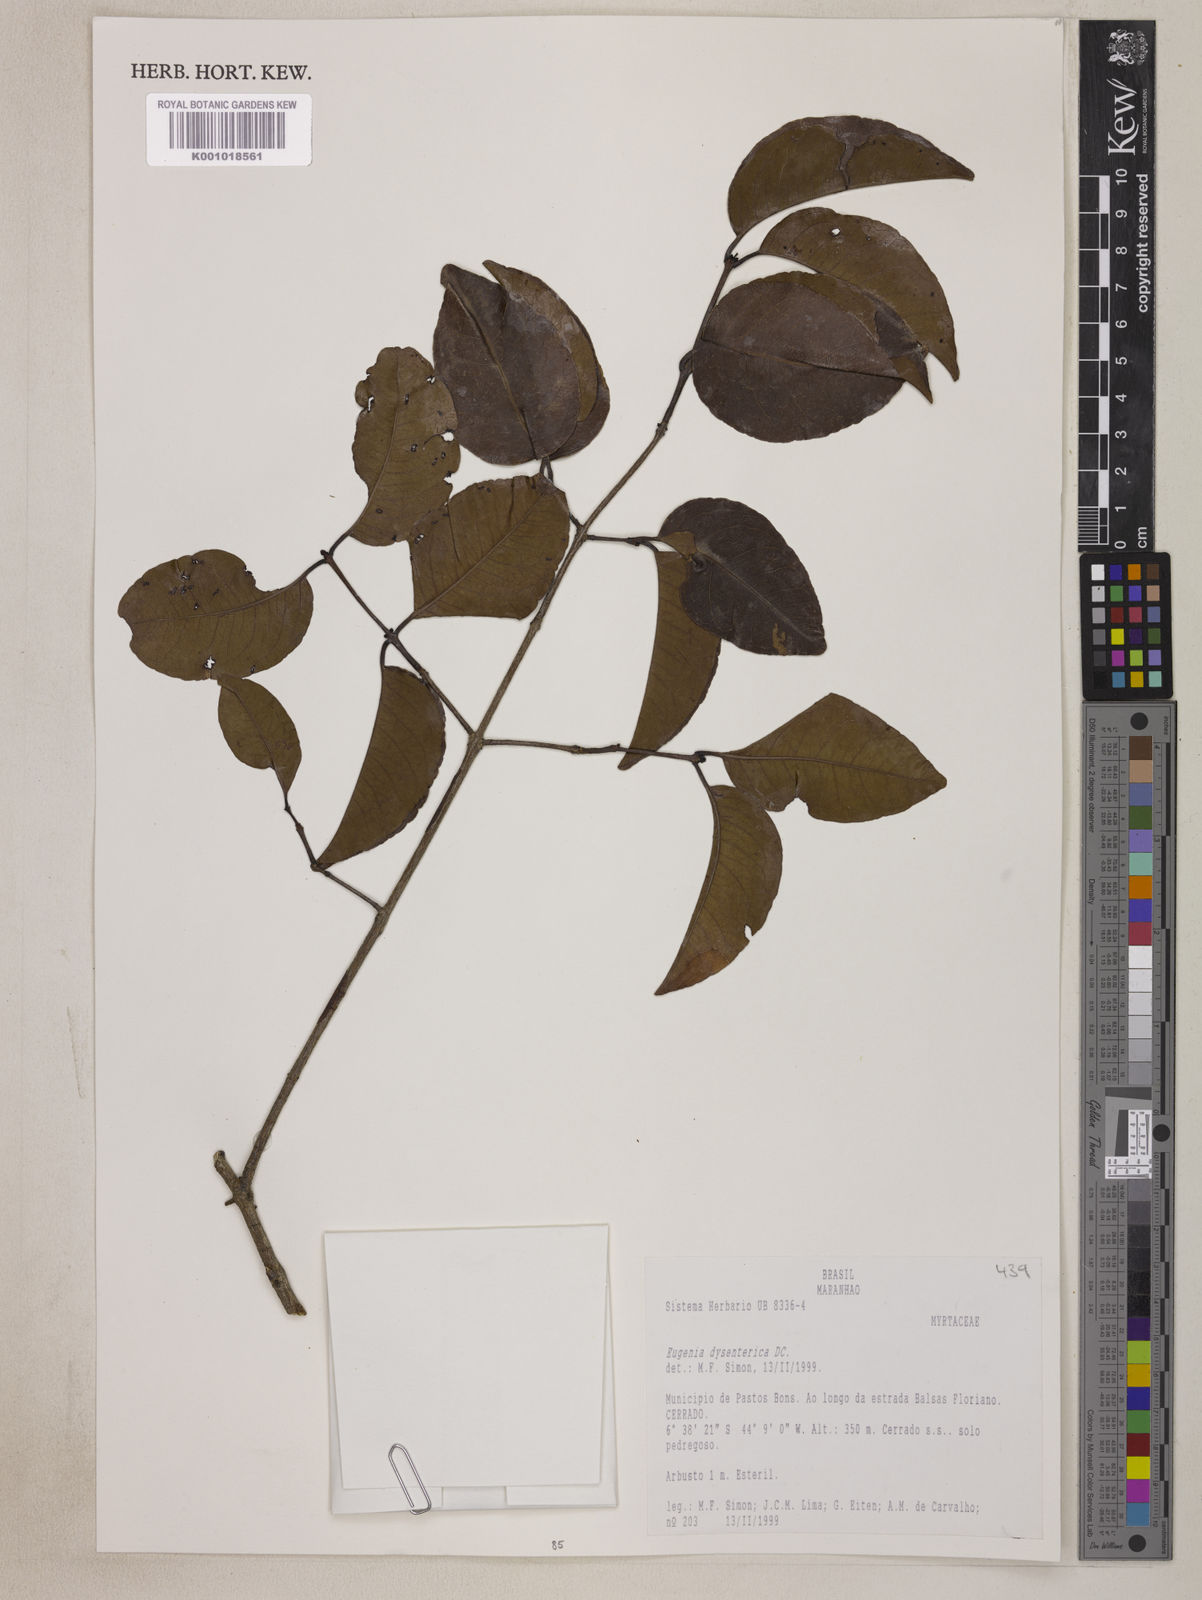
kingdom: Plantae
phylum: Tracheophyta
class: Magnoliopsida
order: Myrtales
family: Myrtaceae
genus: Eugenia
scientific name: Eugenia dysenterica
